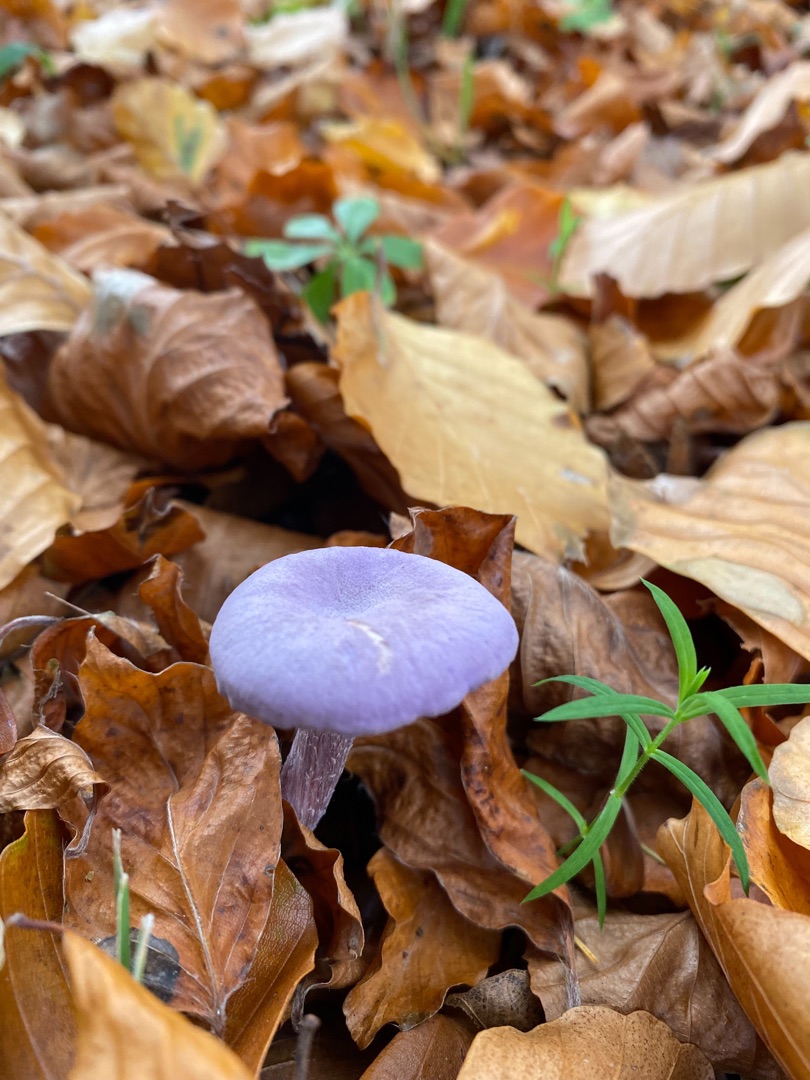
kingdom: Fungi
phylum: Basidiomycota
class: Agaricomycetes
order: Agaricales
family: Hydnangiaceae
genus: Laccaria
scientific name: Laccaria amethystina
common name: Violet ametysthat
